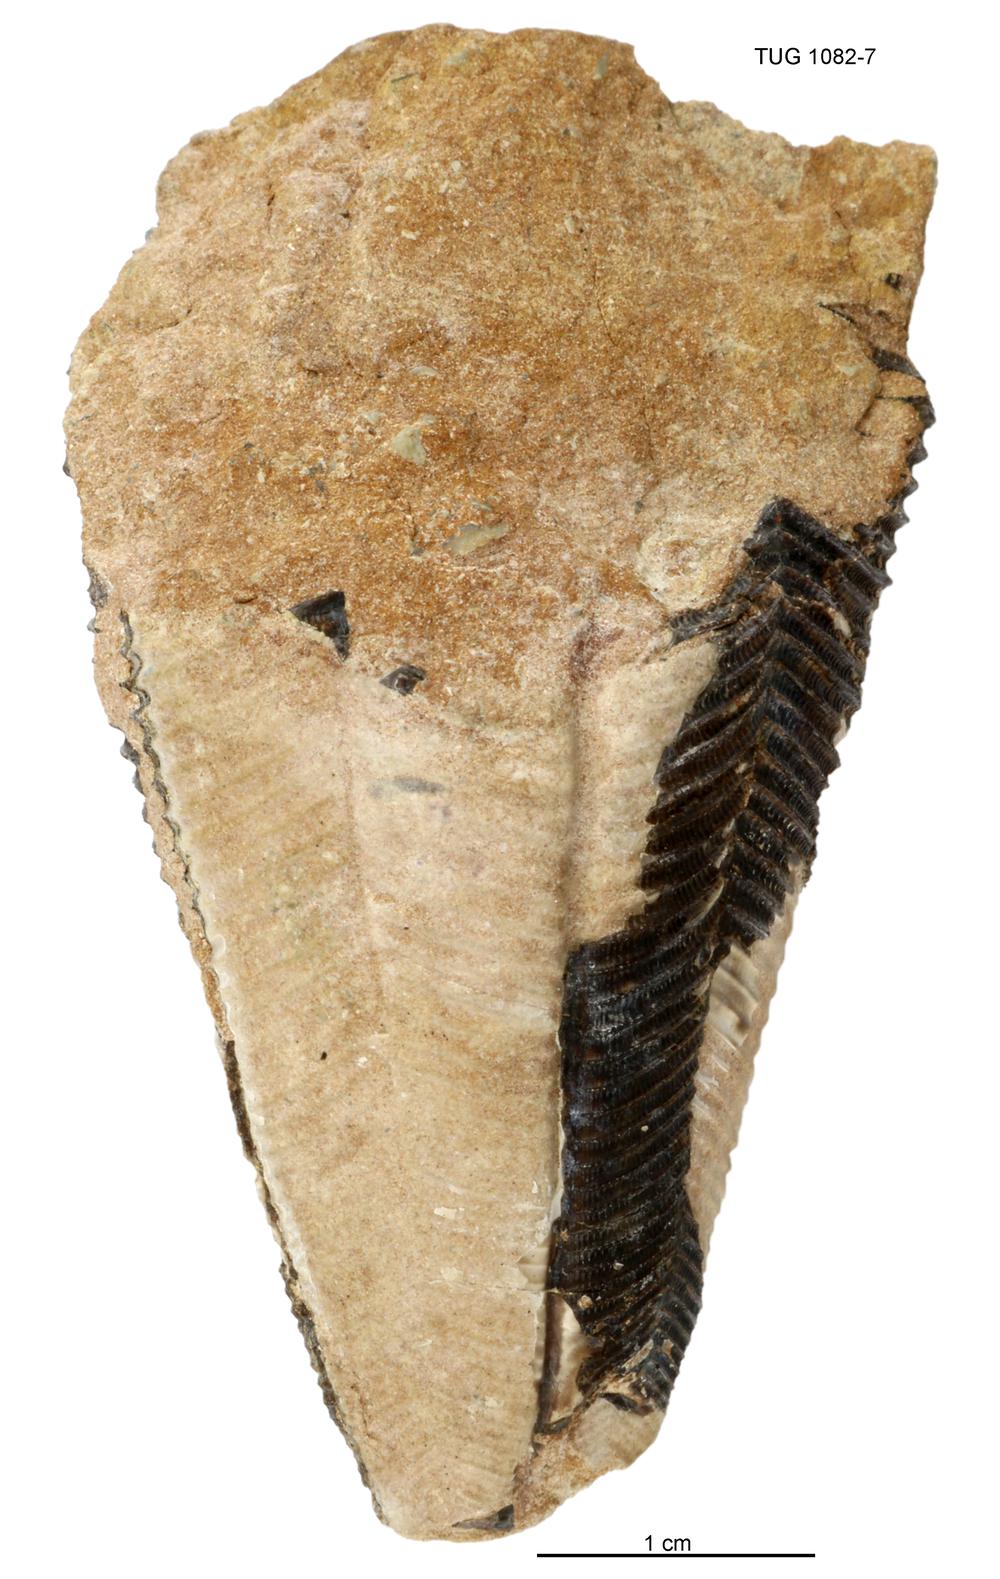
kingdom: Animalia
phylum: Cnidaria
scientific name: Cnidaria
